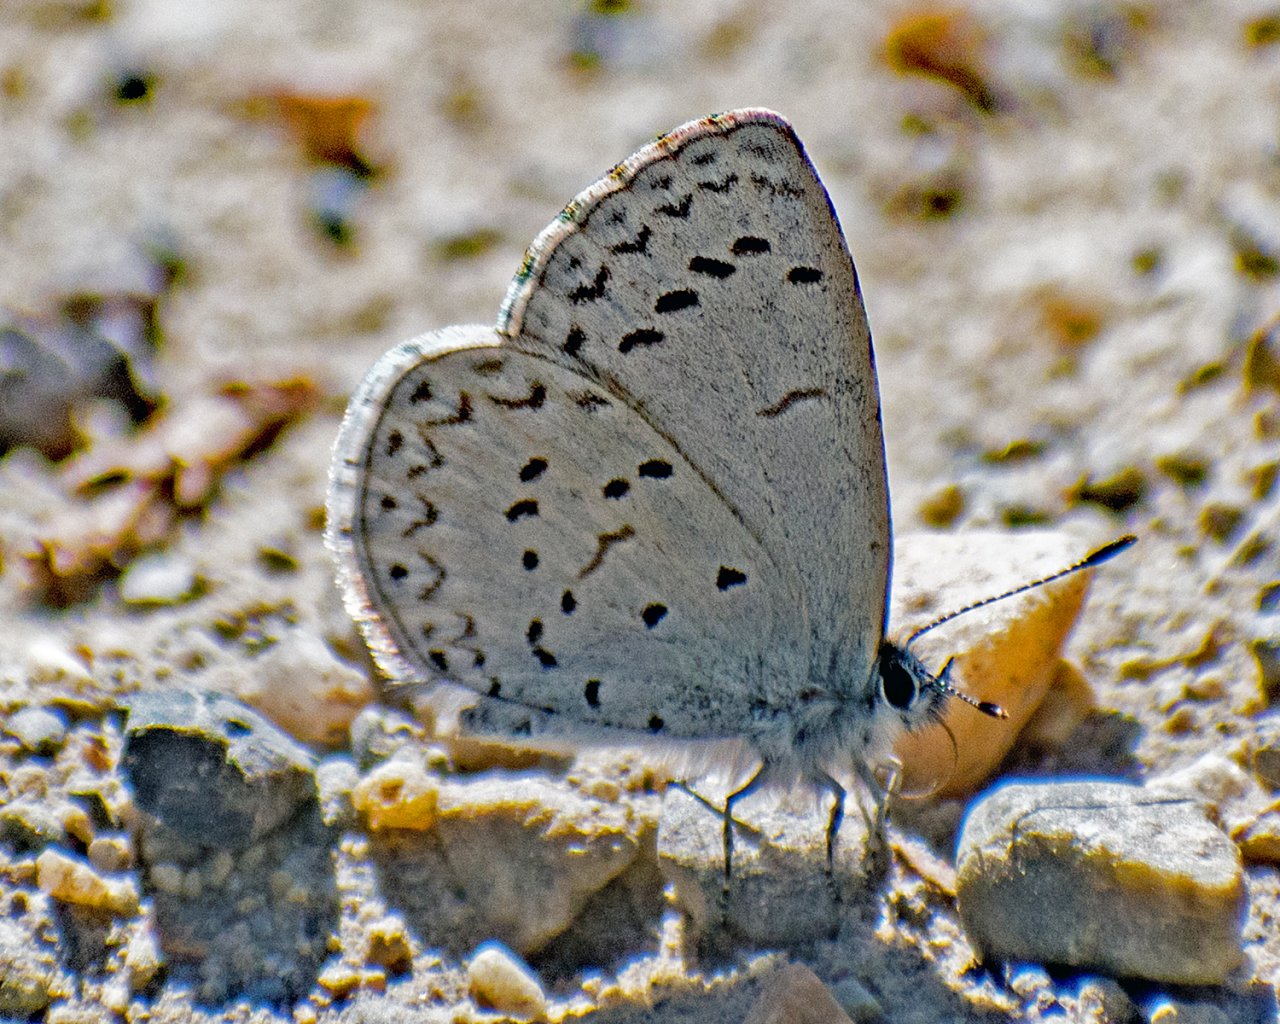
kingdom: Animalia
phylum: Arthropoda
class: Insecta
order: Lepidoptera
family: Lycaenidae
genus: Celastrina
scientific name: Celastrina ladon
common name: Echo Azure
